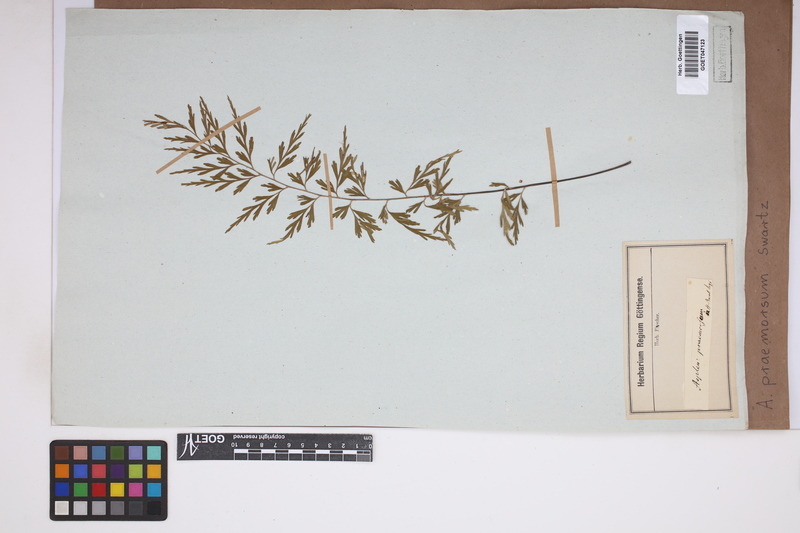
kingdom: Plantae
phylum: Tracheophyta
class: Polypodiopsida
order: Polypodiales
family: Aspleniaceae
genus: Asplenium
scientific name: Asplenium praemorsum
